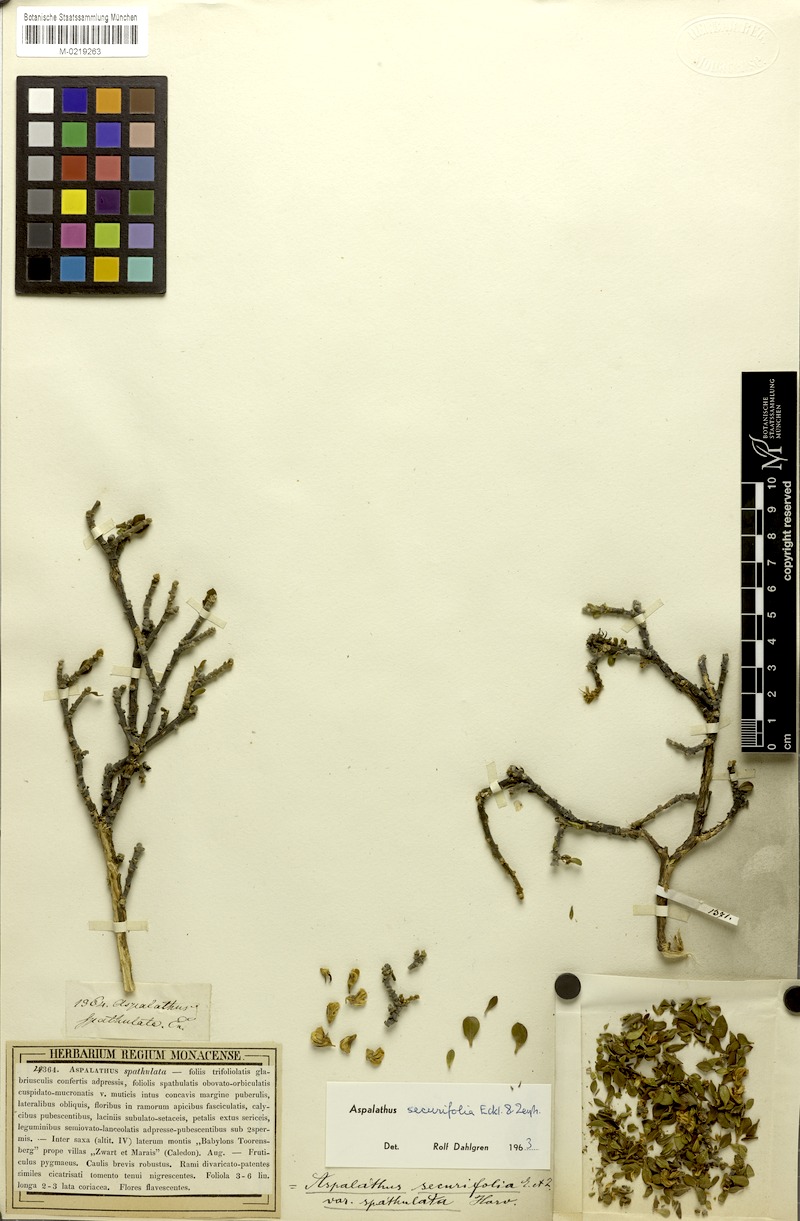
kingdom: Plantae
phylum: Tracheophyta
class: Magnoliopsida
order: Fabales
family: Fabaceae
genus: Aspalathus
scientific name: Aspalathus securifolia
